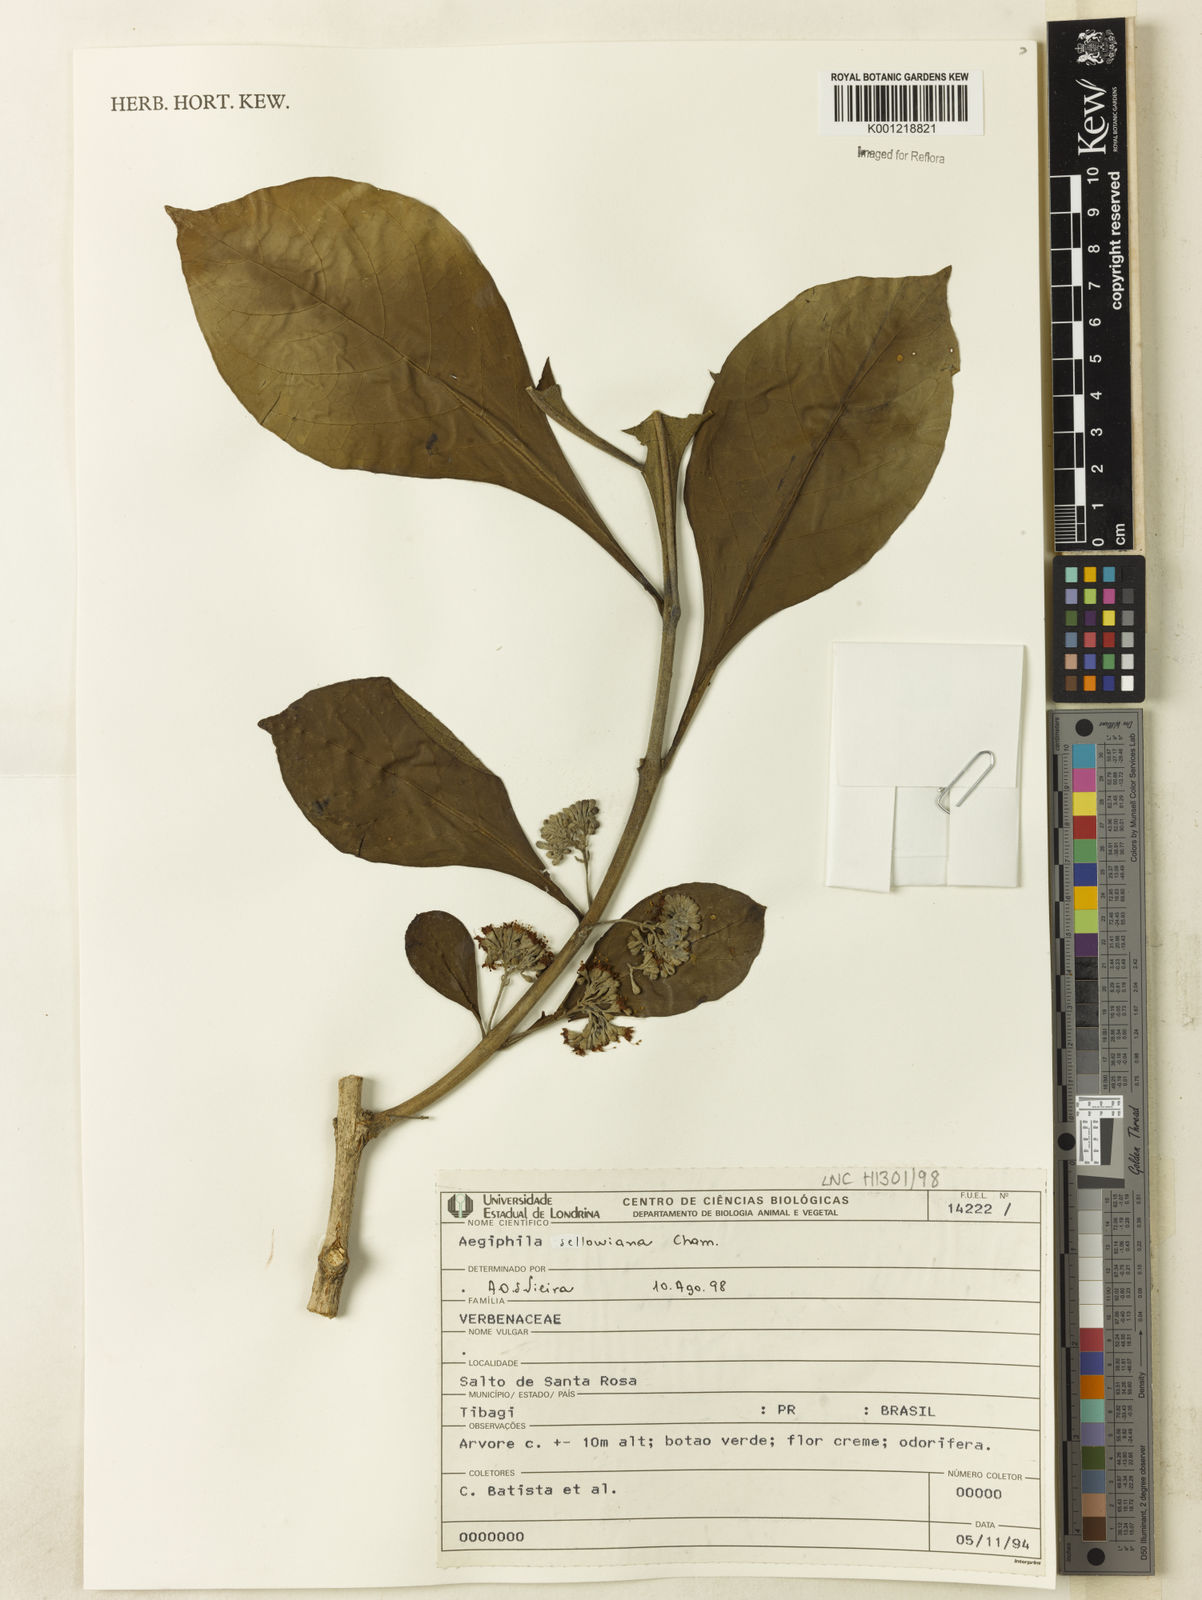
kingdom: Plantae
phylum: Tracheophyta
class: Magnoliopsida
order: Lamiales
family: Lamiaceae
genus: Aegiphila
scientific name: Aegiphila verticillata
